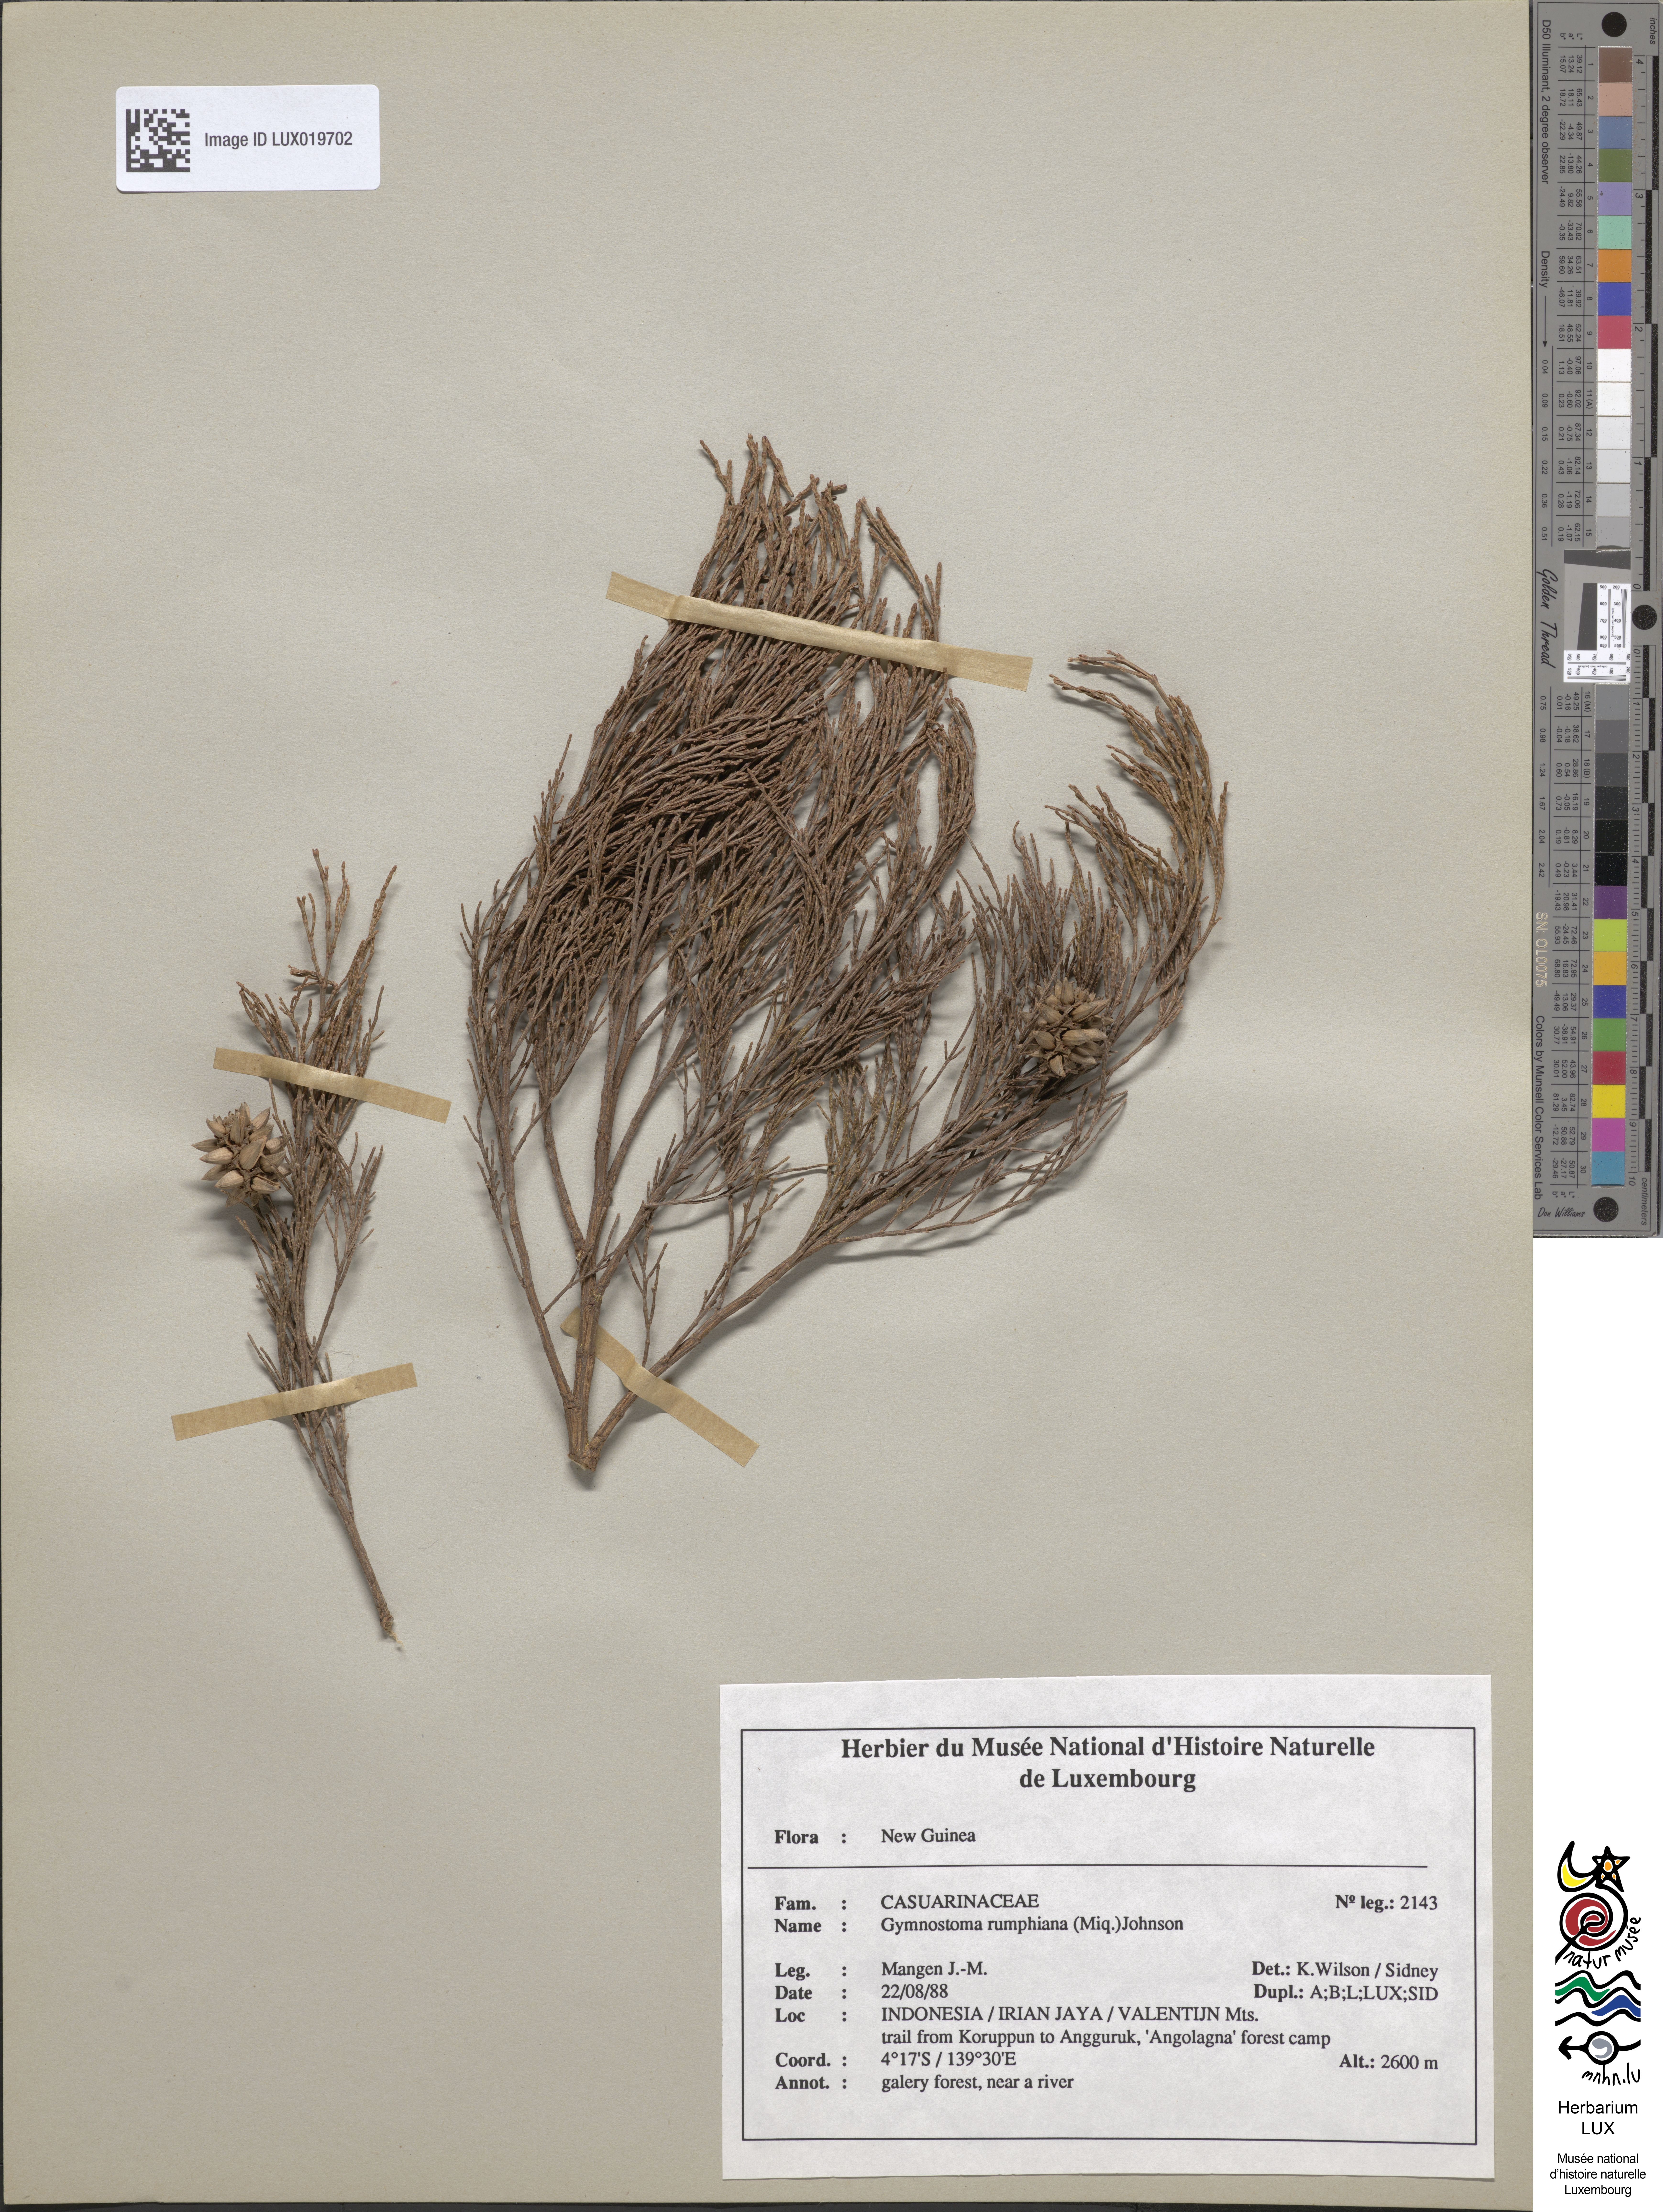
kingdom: Plantae
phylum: Tracheophyta
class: Magnoliopsida
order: Fagales
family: Casuarinaceae
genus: Gymnostoma
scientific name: Gymnostoma rumphianum
